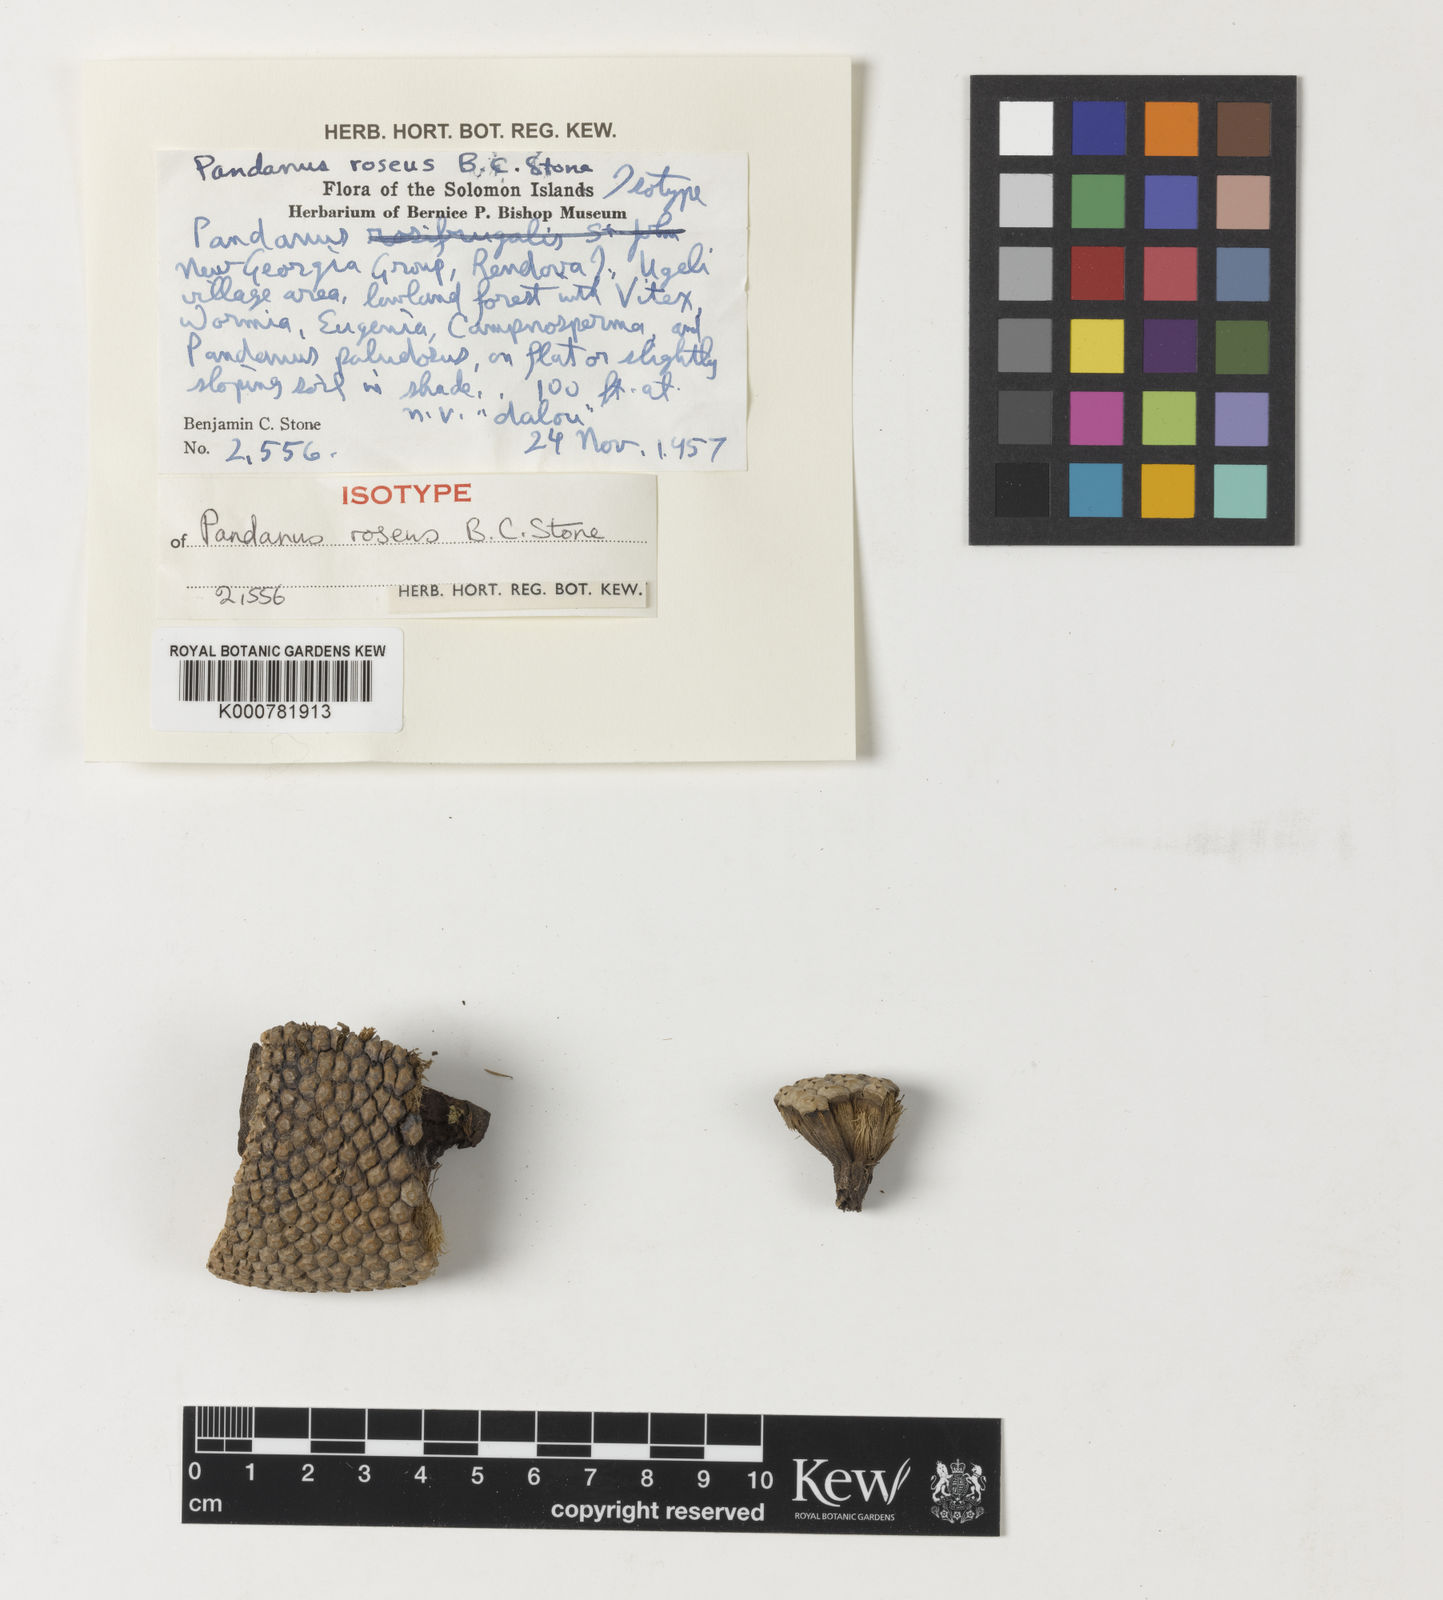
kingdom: Plantae
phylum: Tracheophyta
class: Liliopsida
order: Pandanales
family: Pandanaceae
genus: Pandanus
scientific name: Pandanus krauelianus
